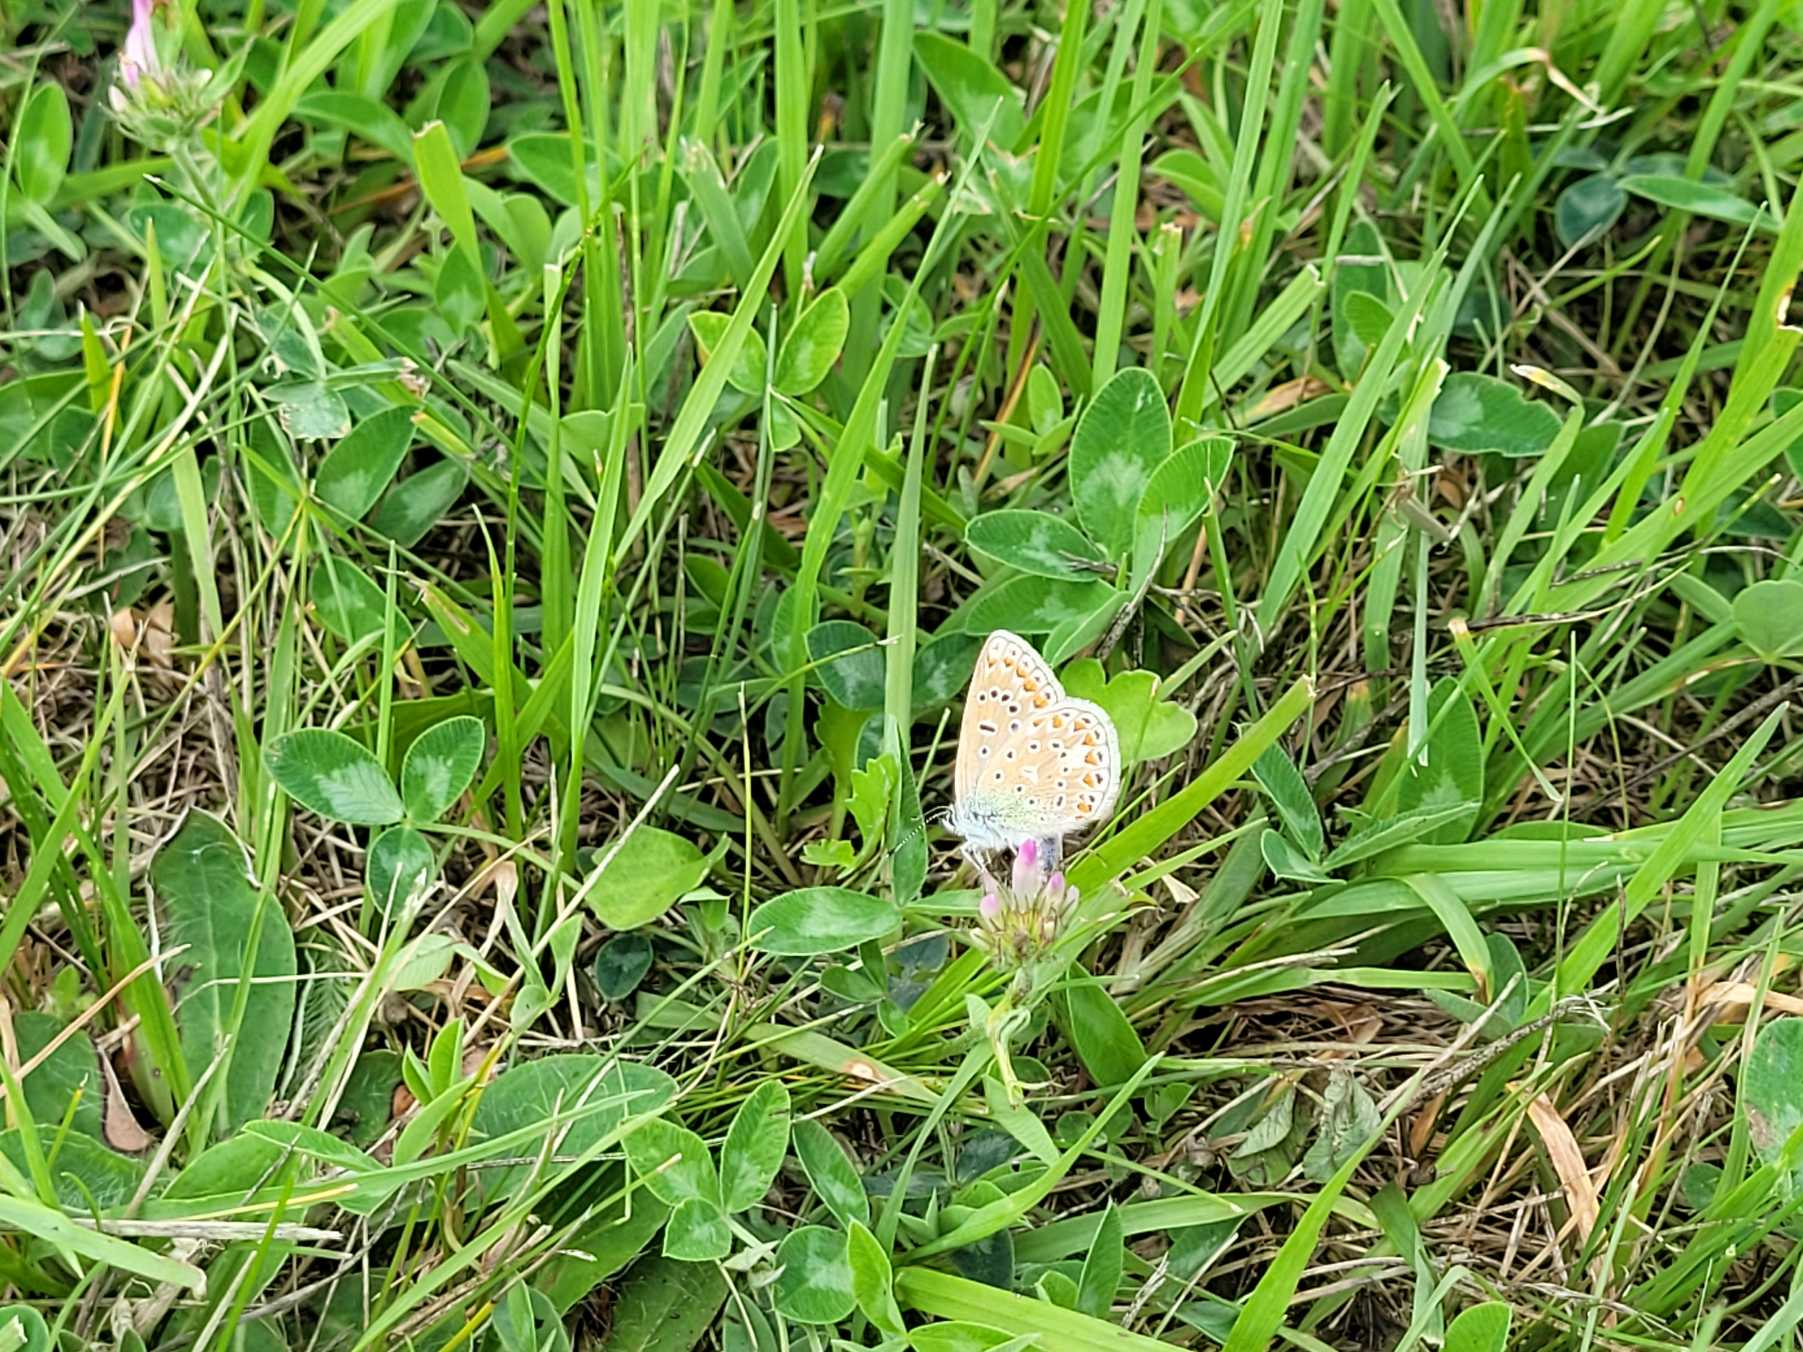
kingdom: Animalia
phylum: Arthropoda
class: Insecta
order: Lepidoptera
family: Lycaenidae
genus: Polyommatus
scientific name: Polyommatus icarus
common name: Almindelig blåfugl
